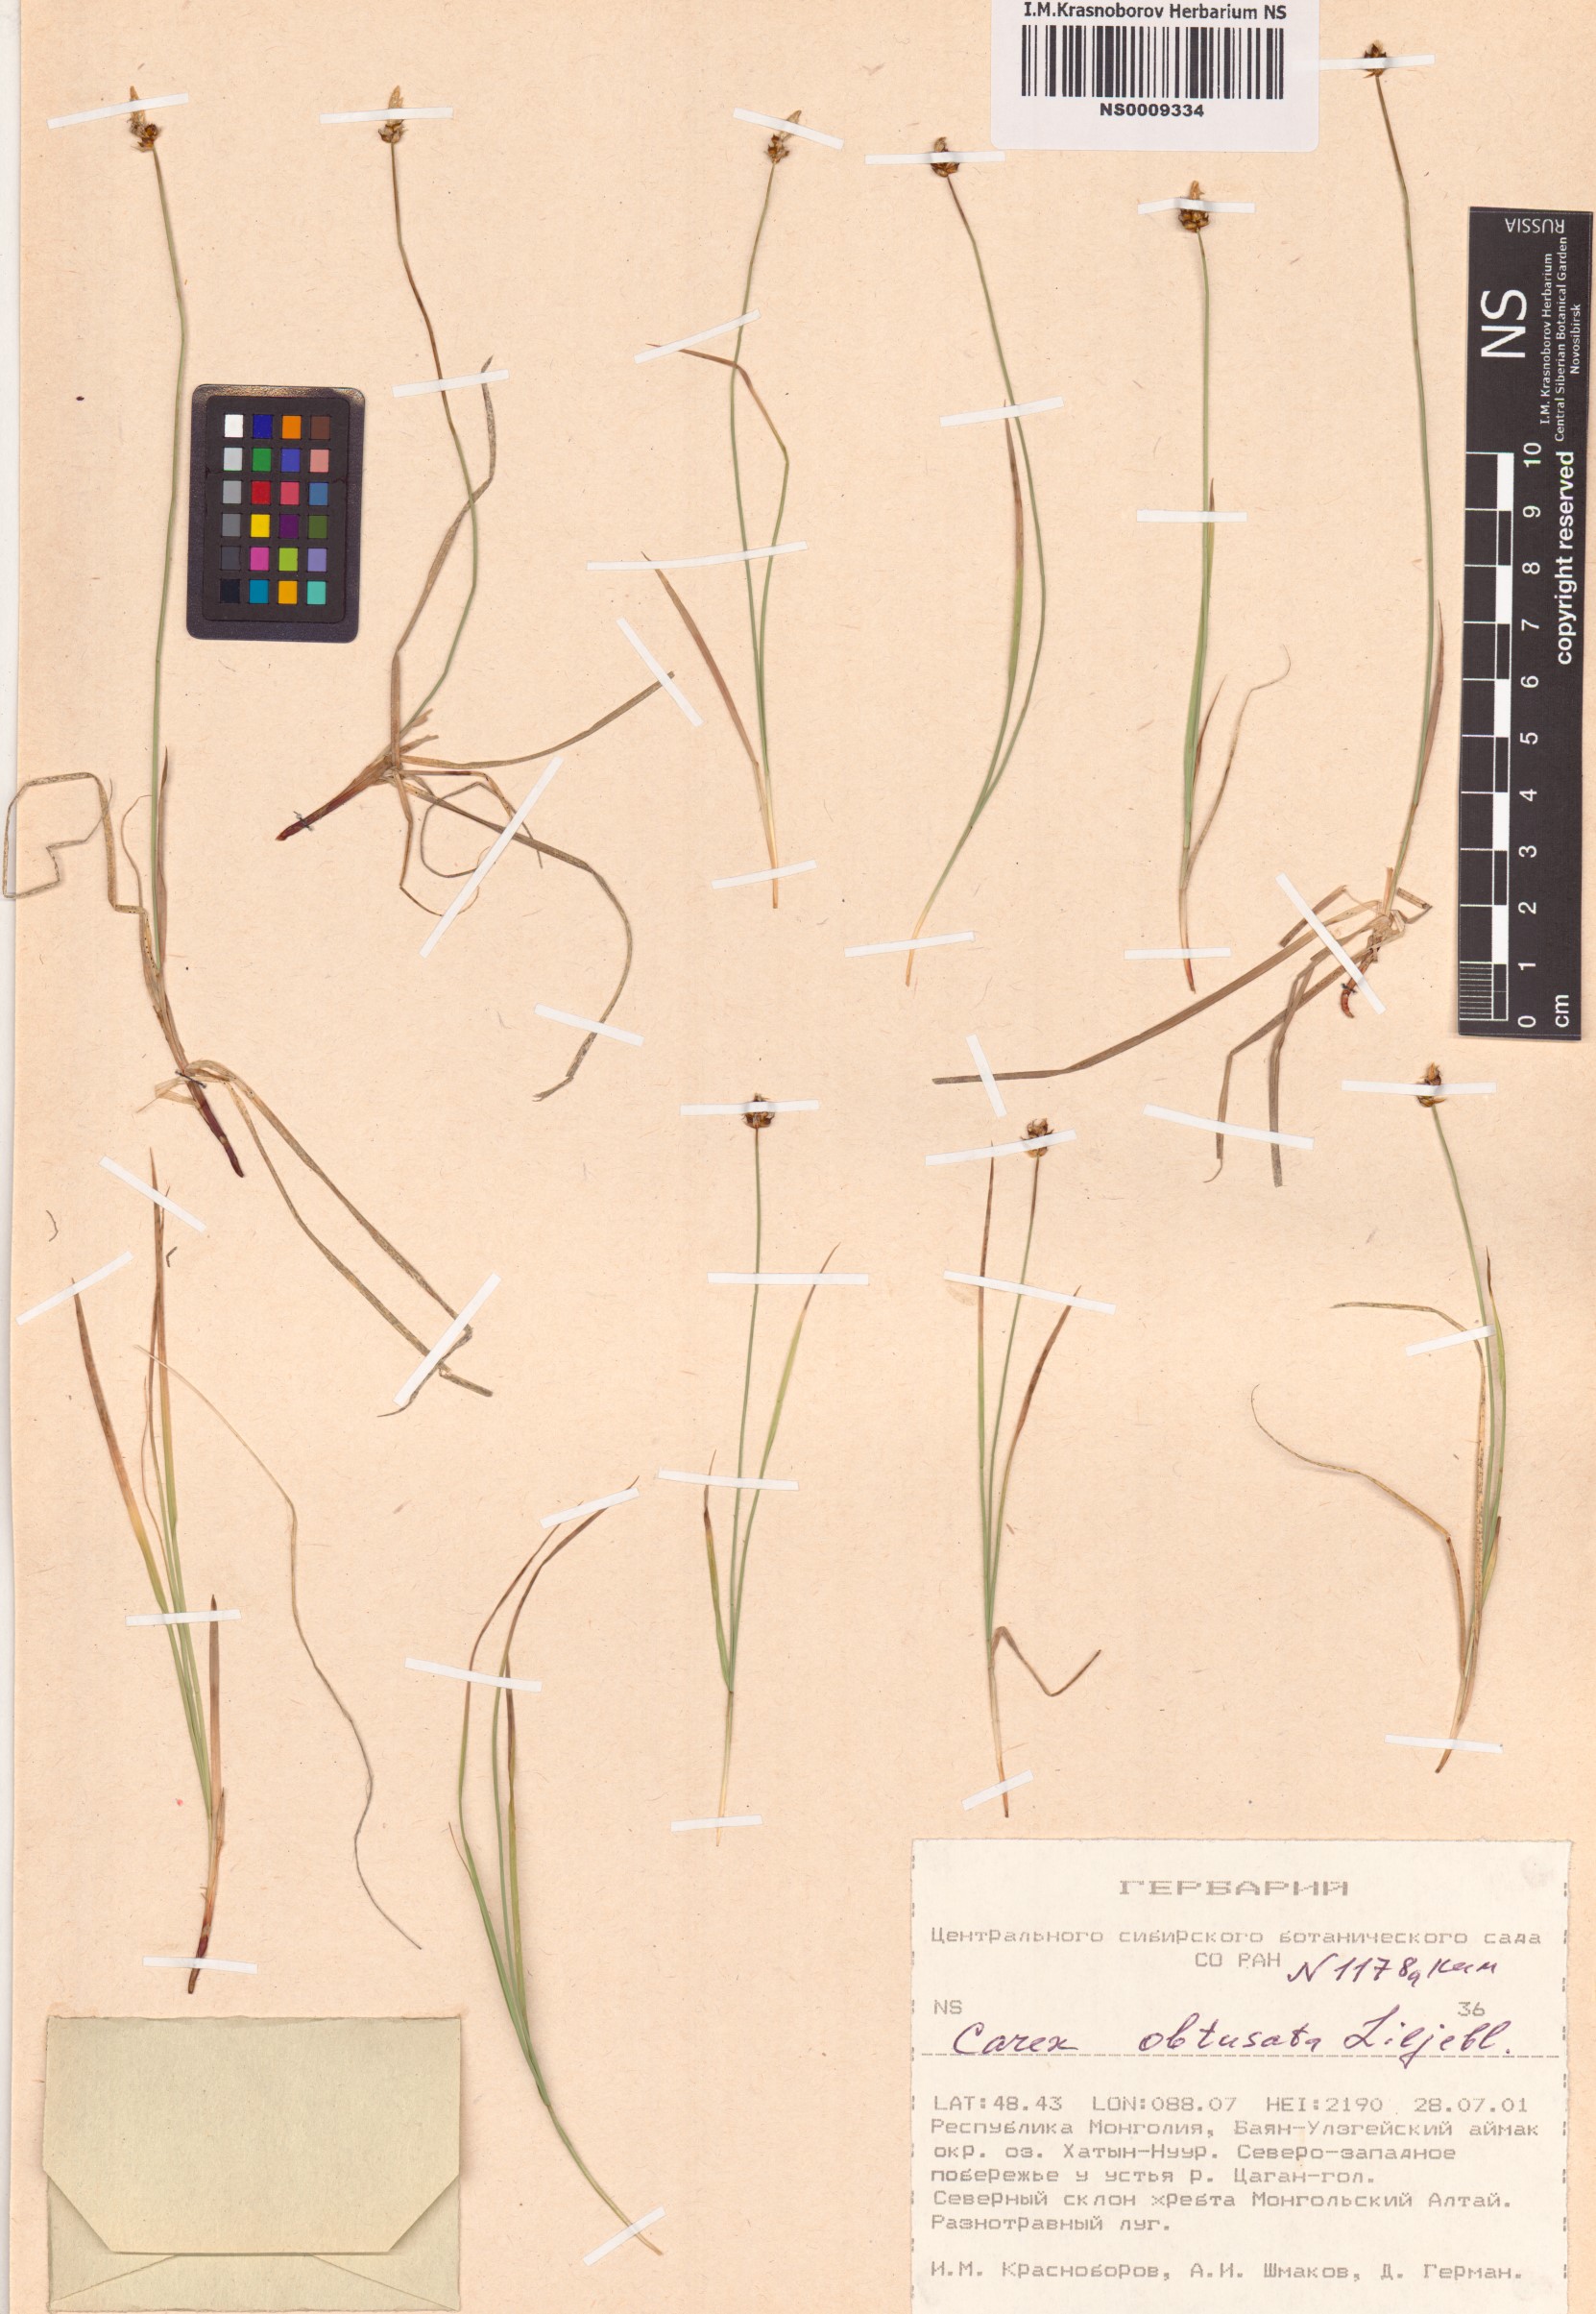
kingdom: Plantae
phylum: Tracheophyta
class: Liliopsida
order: Poales
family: Cyperaceae
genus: Carex
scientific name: Carex obtusata
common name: Blunt sedge
